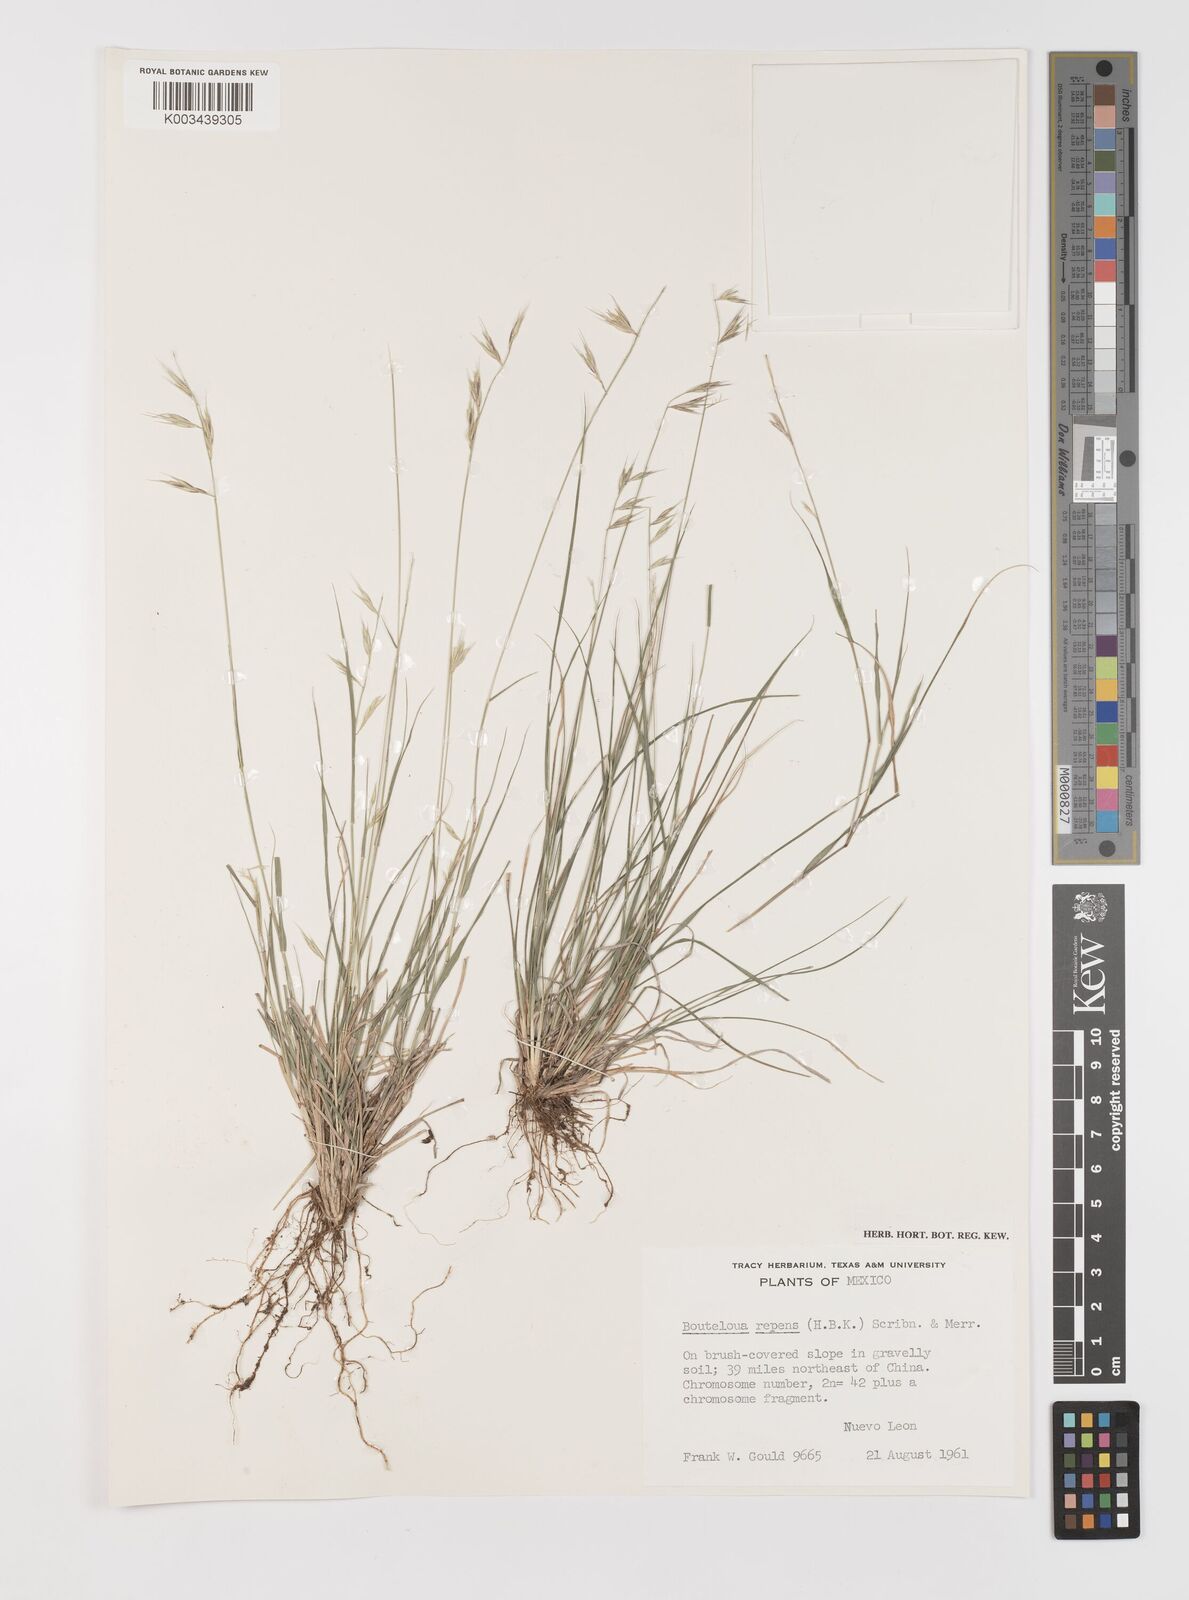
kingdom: Plantae
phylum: Tracheophyta
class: Liliopsida
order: Poales
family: Poaceae
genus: Bouteloua
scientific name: Bouteloua repens
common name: Slender grama
